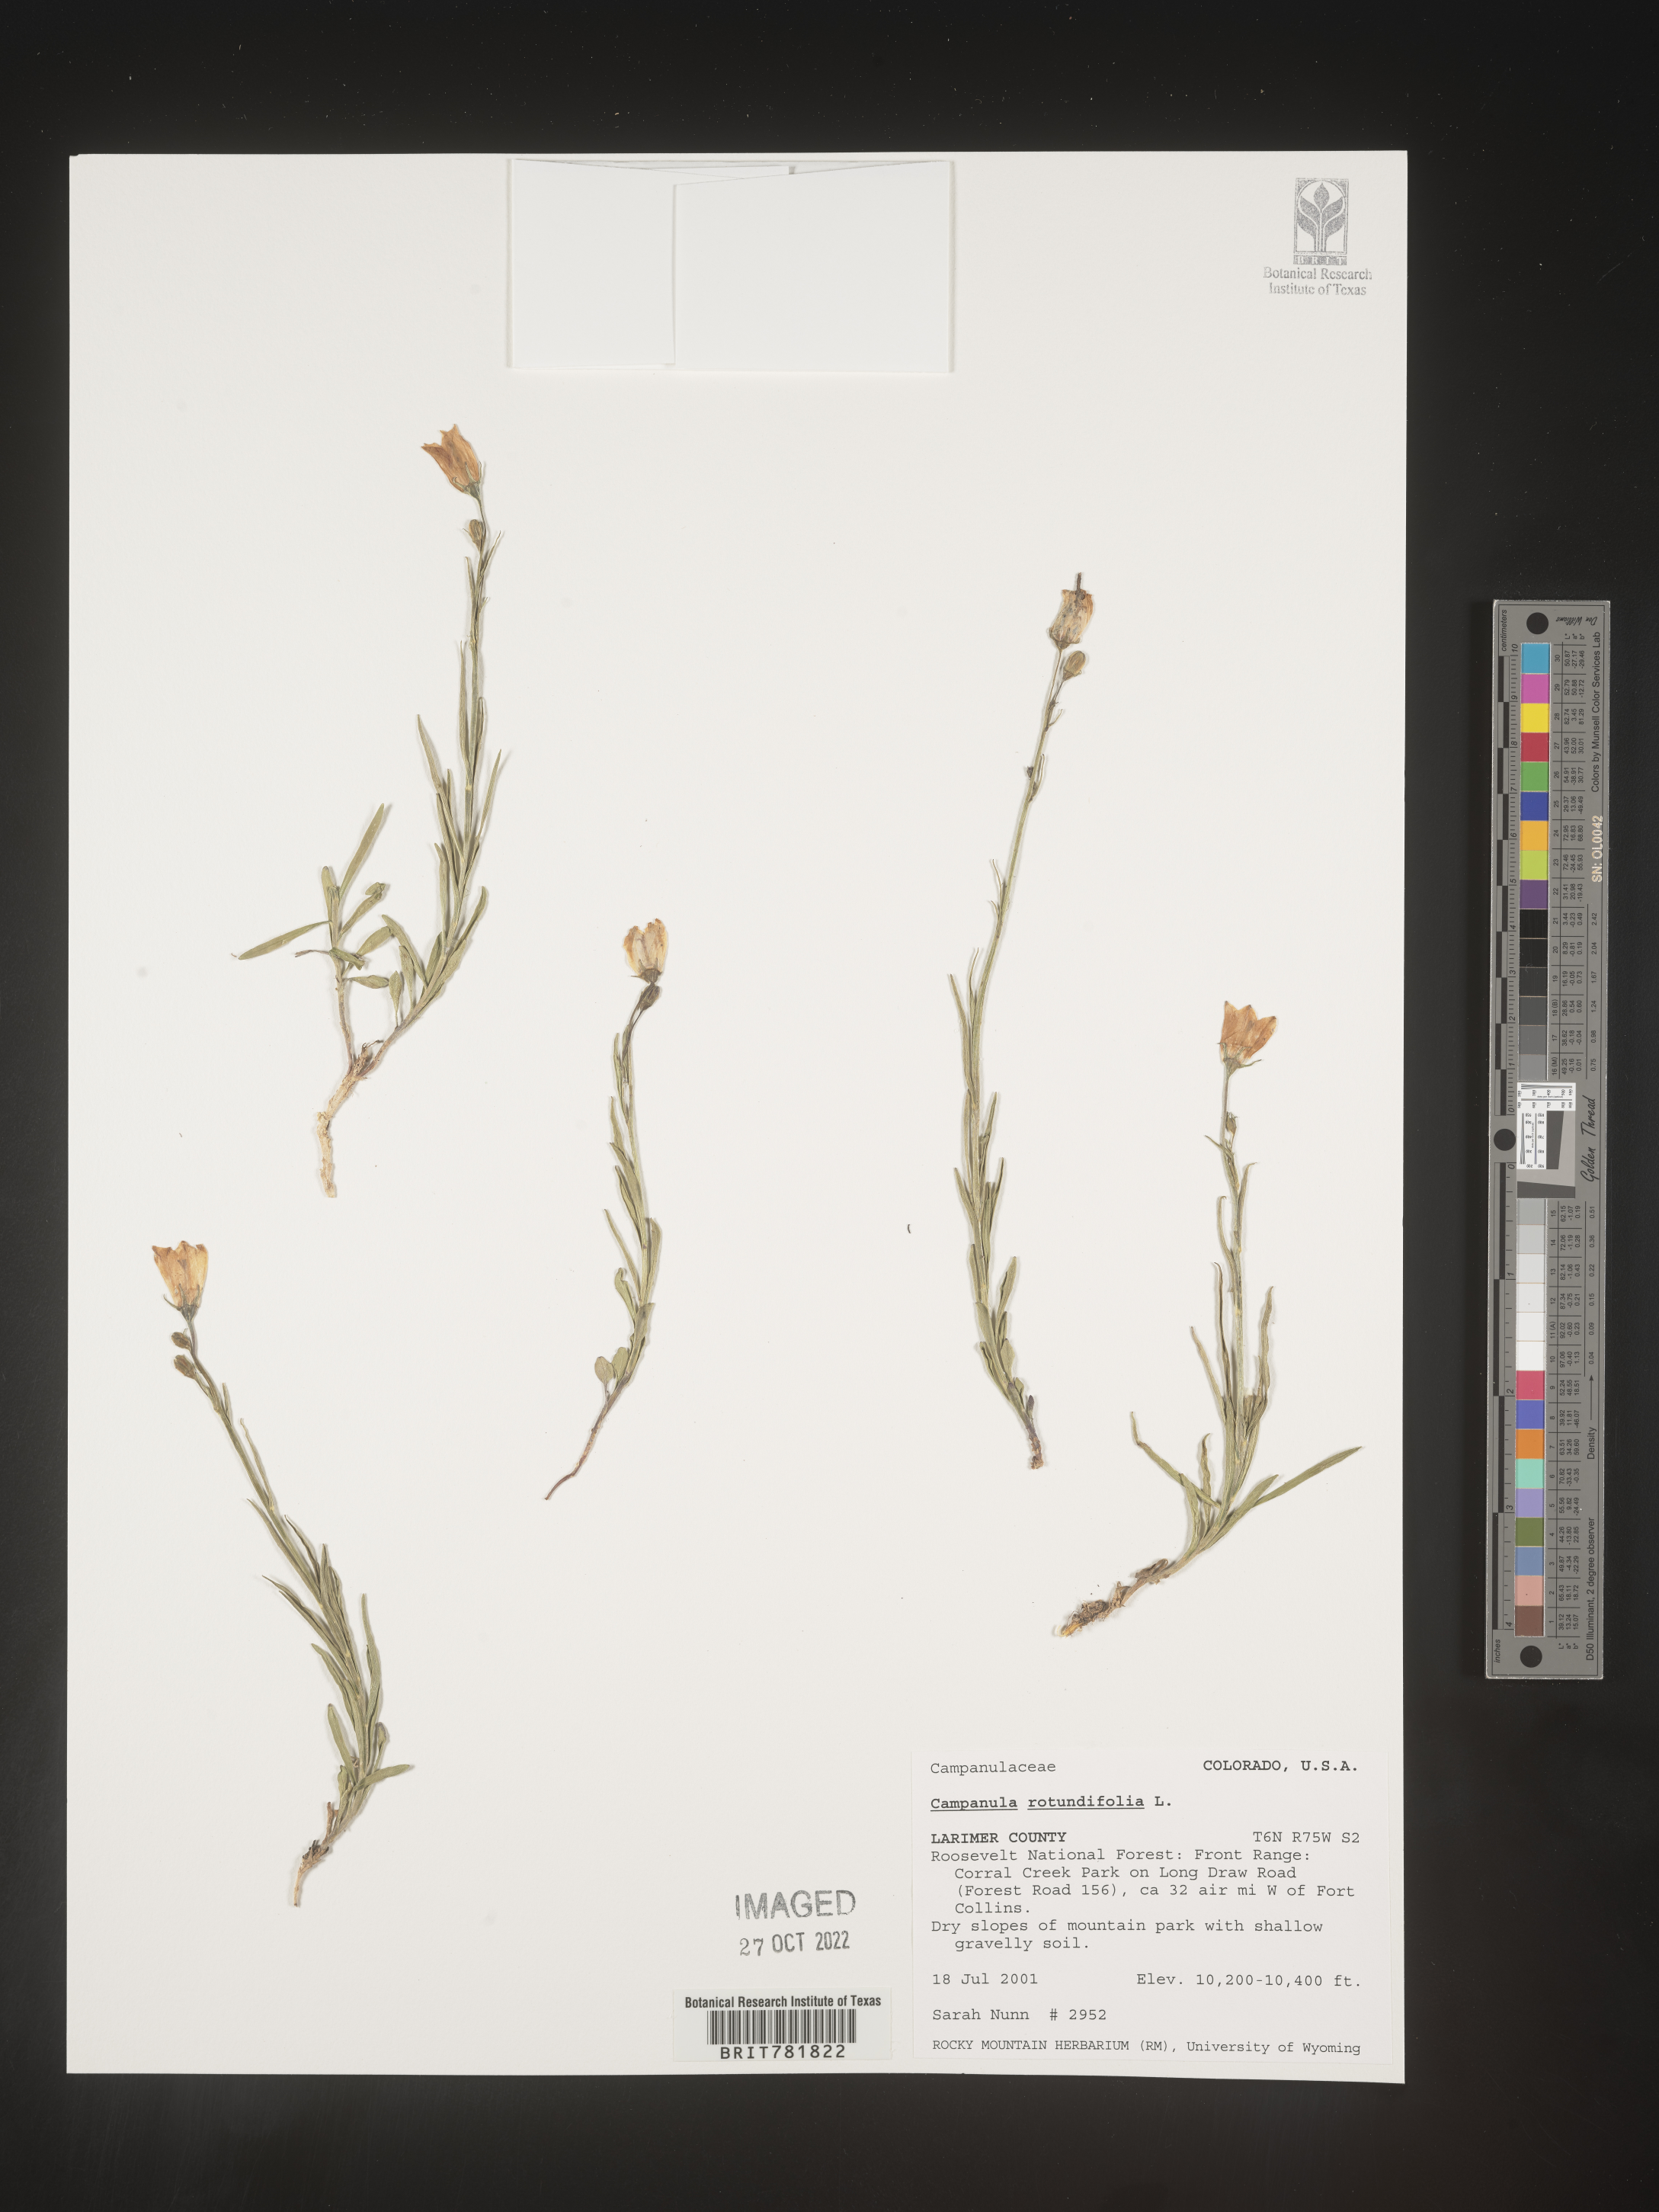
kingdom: Plantae
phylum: Tracheophyta
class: Magnoliopsida
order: Asterales
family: Campanulaceae
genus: Campanula
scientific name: Campanula rotundifolia
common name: Harebell
